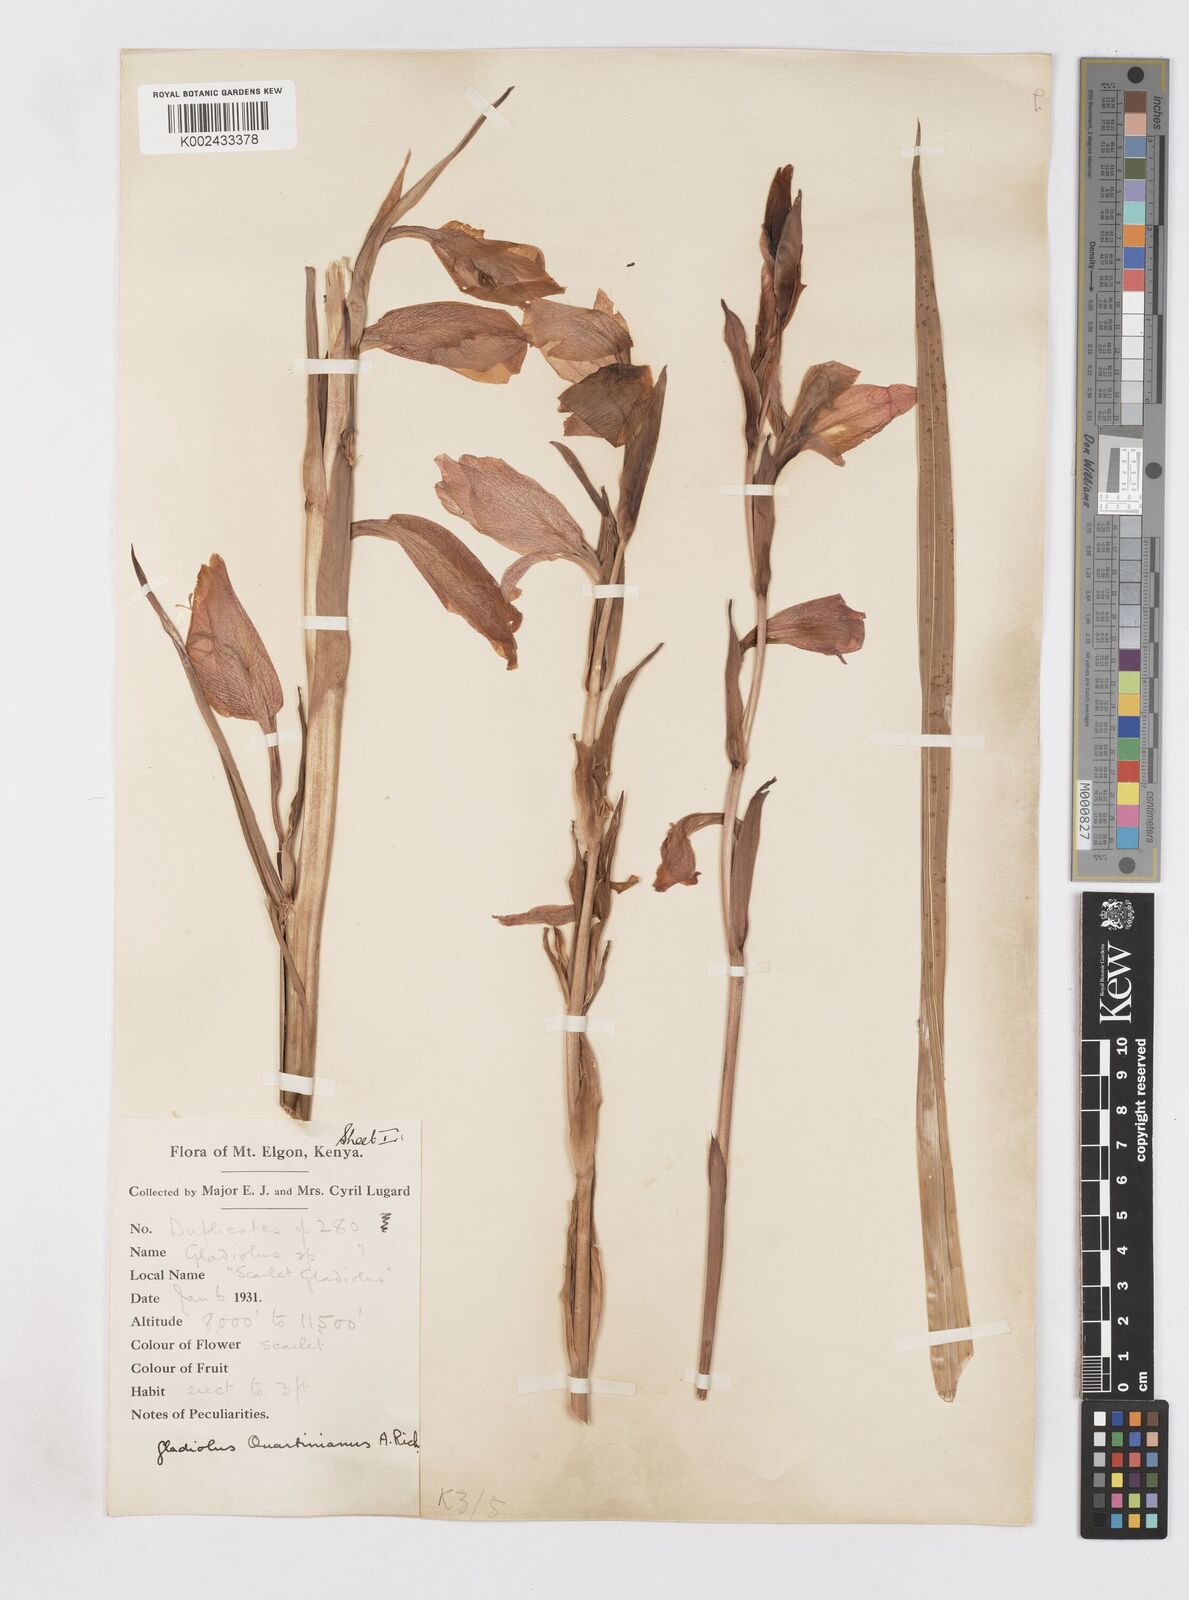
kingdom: Plantae
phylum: Tracheophyta
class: Liliopsida
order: Asparagales
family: Iridaceae
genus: Gladiolus
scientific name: Gladiolus dalenii
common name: Cornflag
